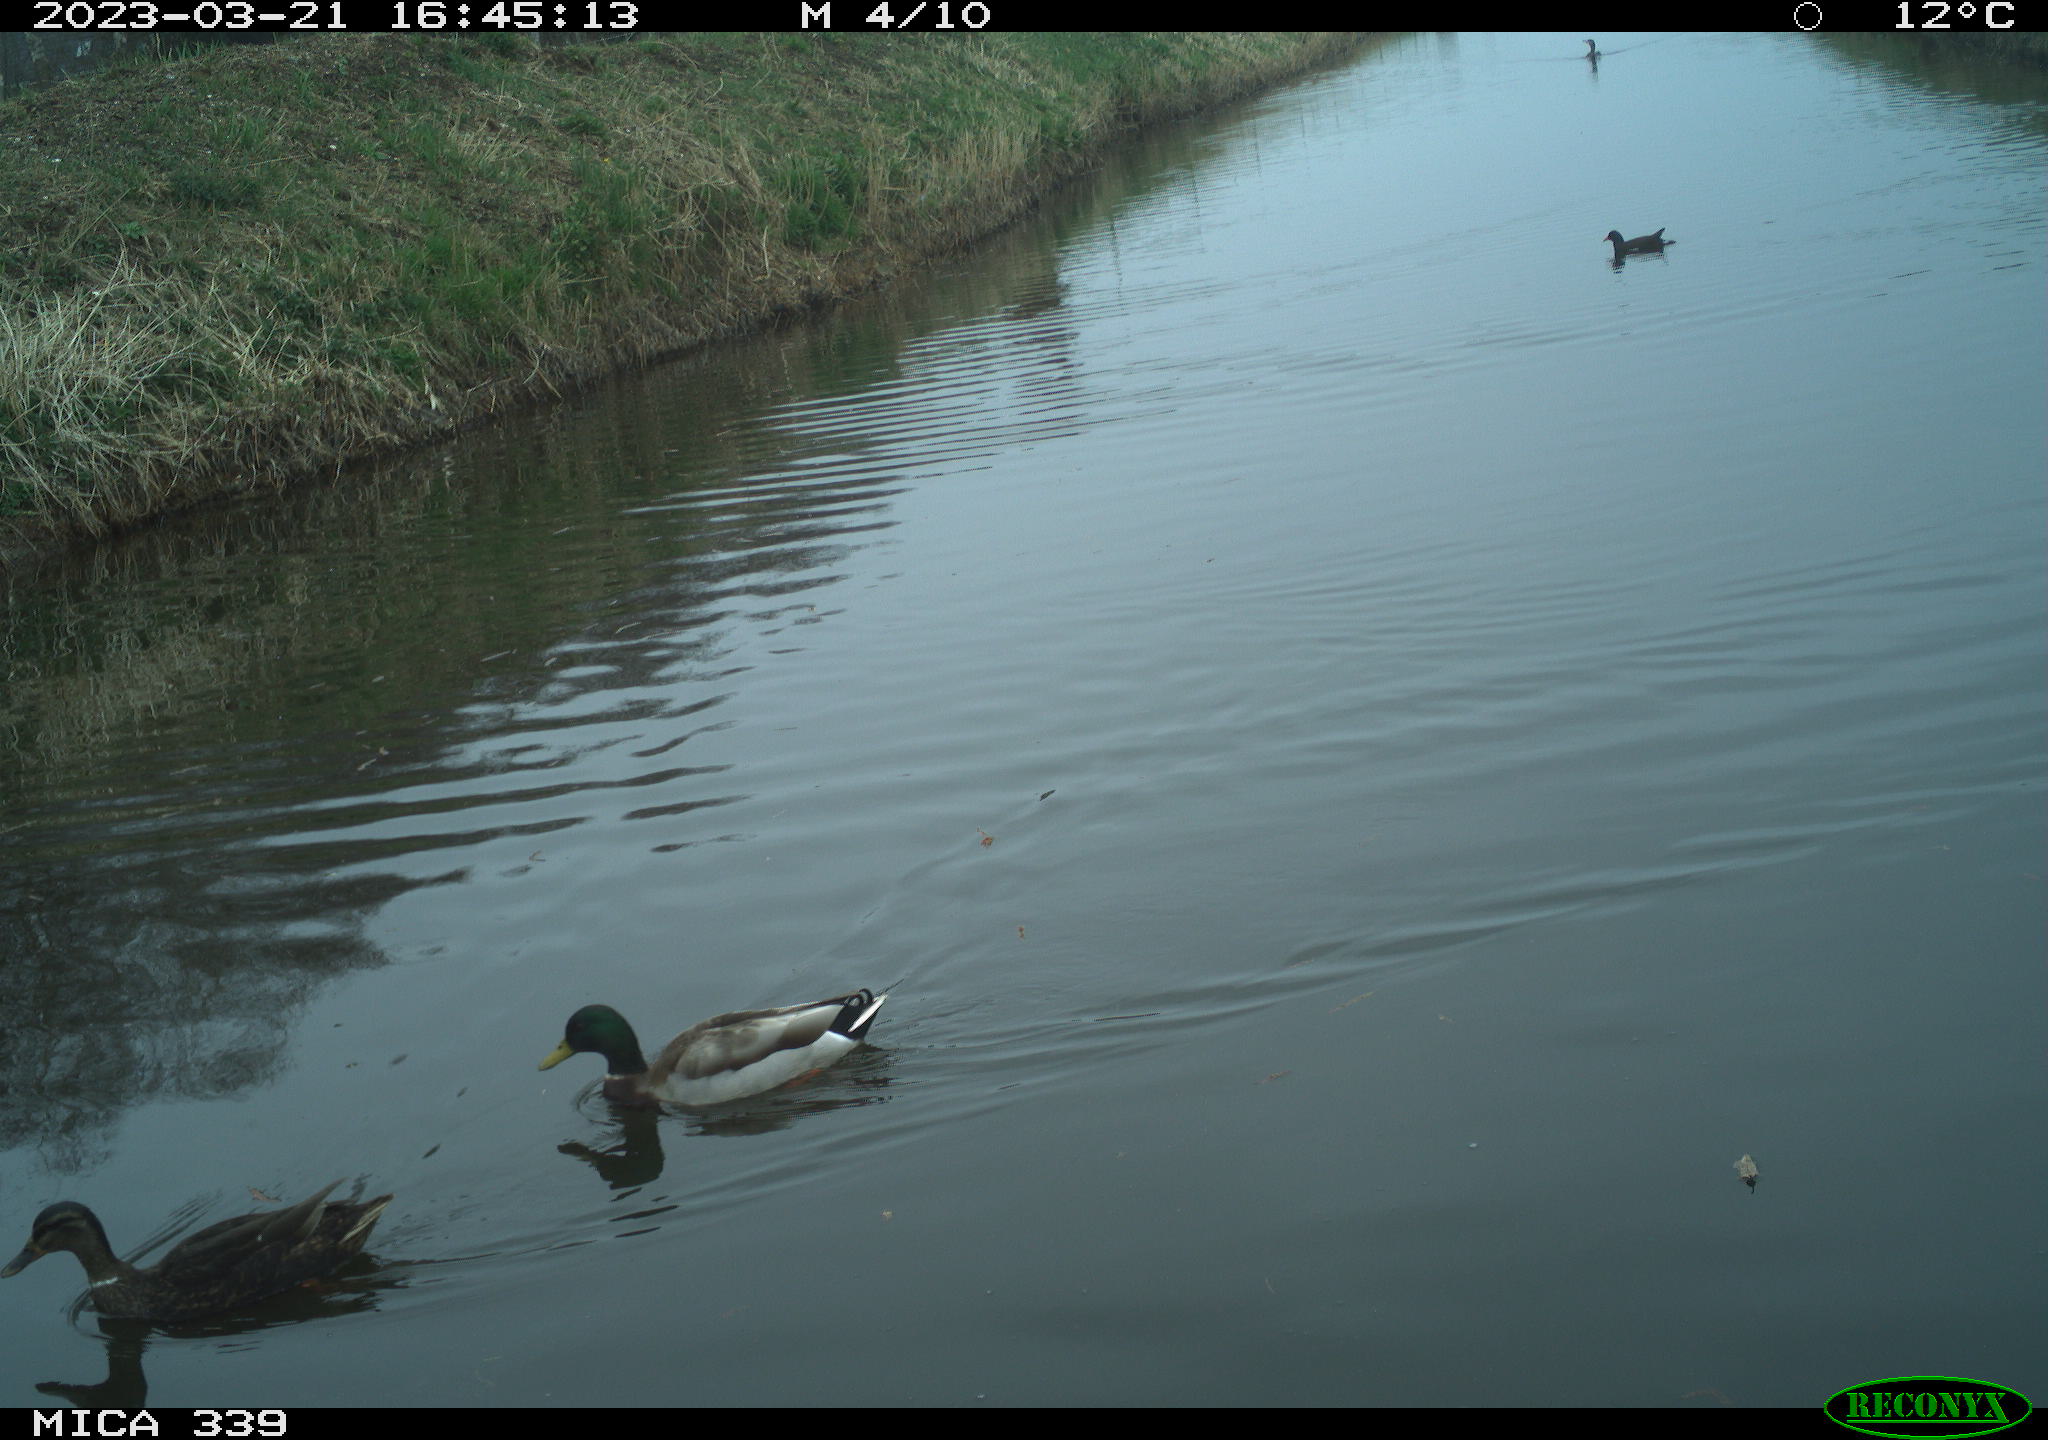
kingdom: Animalia
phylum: Chordata
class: Aves
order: Anseriformes
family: Anatidae
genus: Anas
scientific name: Anas
